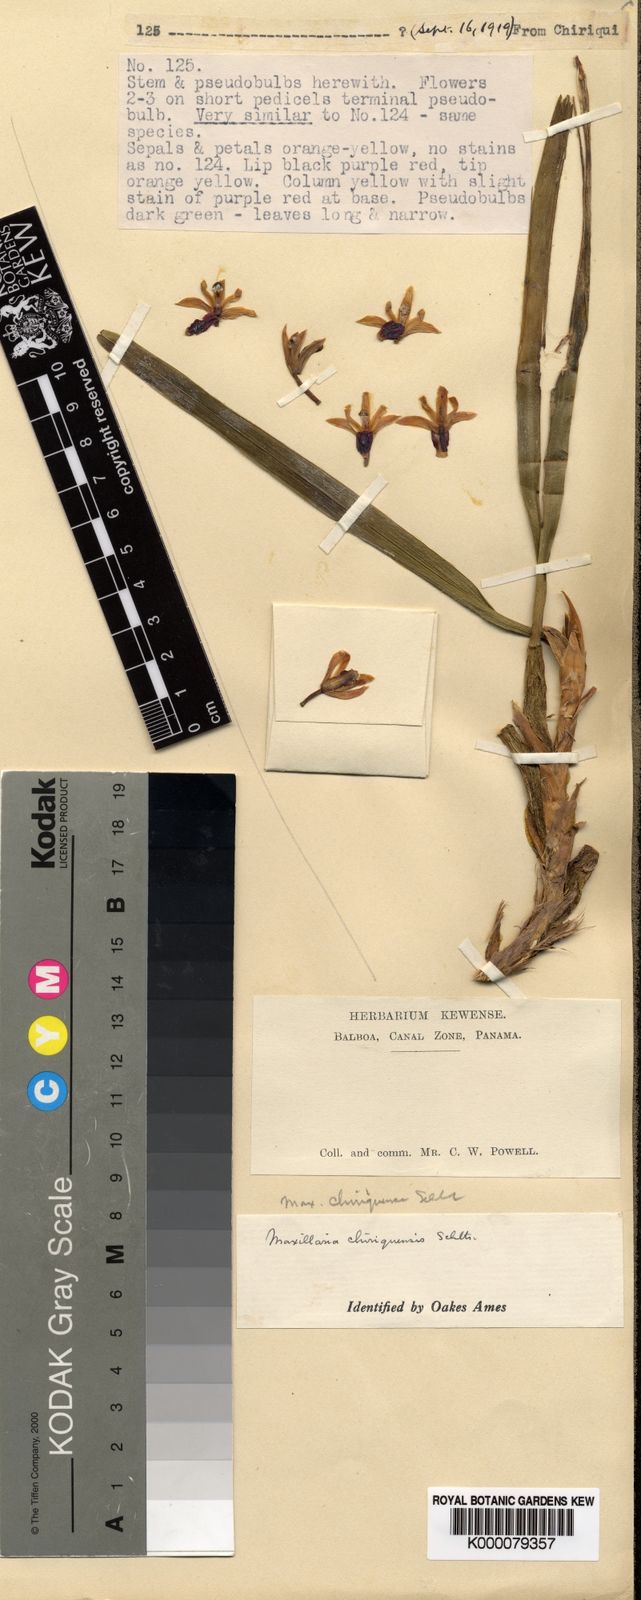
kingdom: Plantae
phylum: Tracheophyta
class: Liliopsida
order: Asparagales
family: Orchidaceae
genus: Maxillaria
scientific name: Maxillaria variabilis
